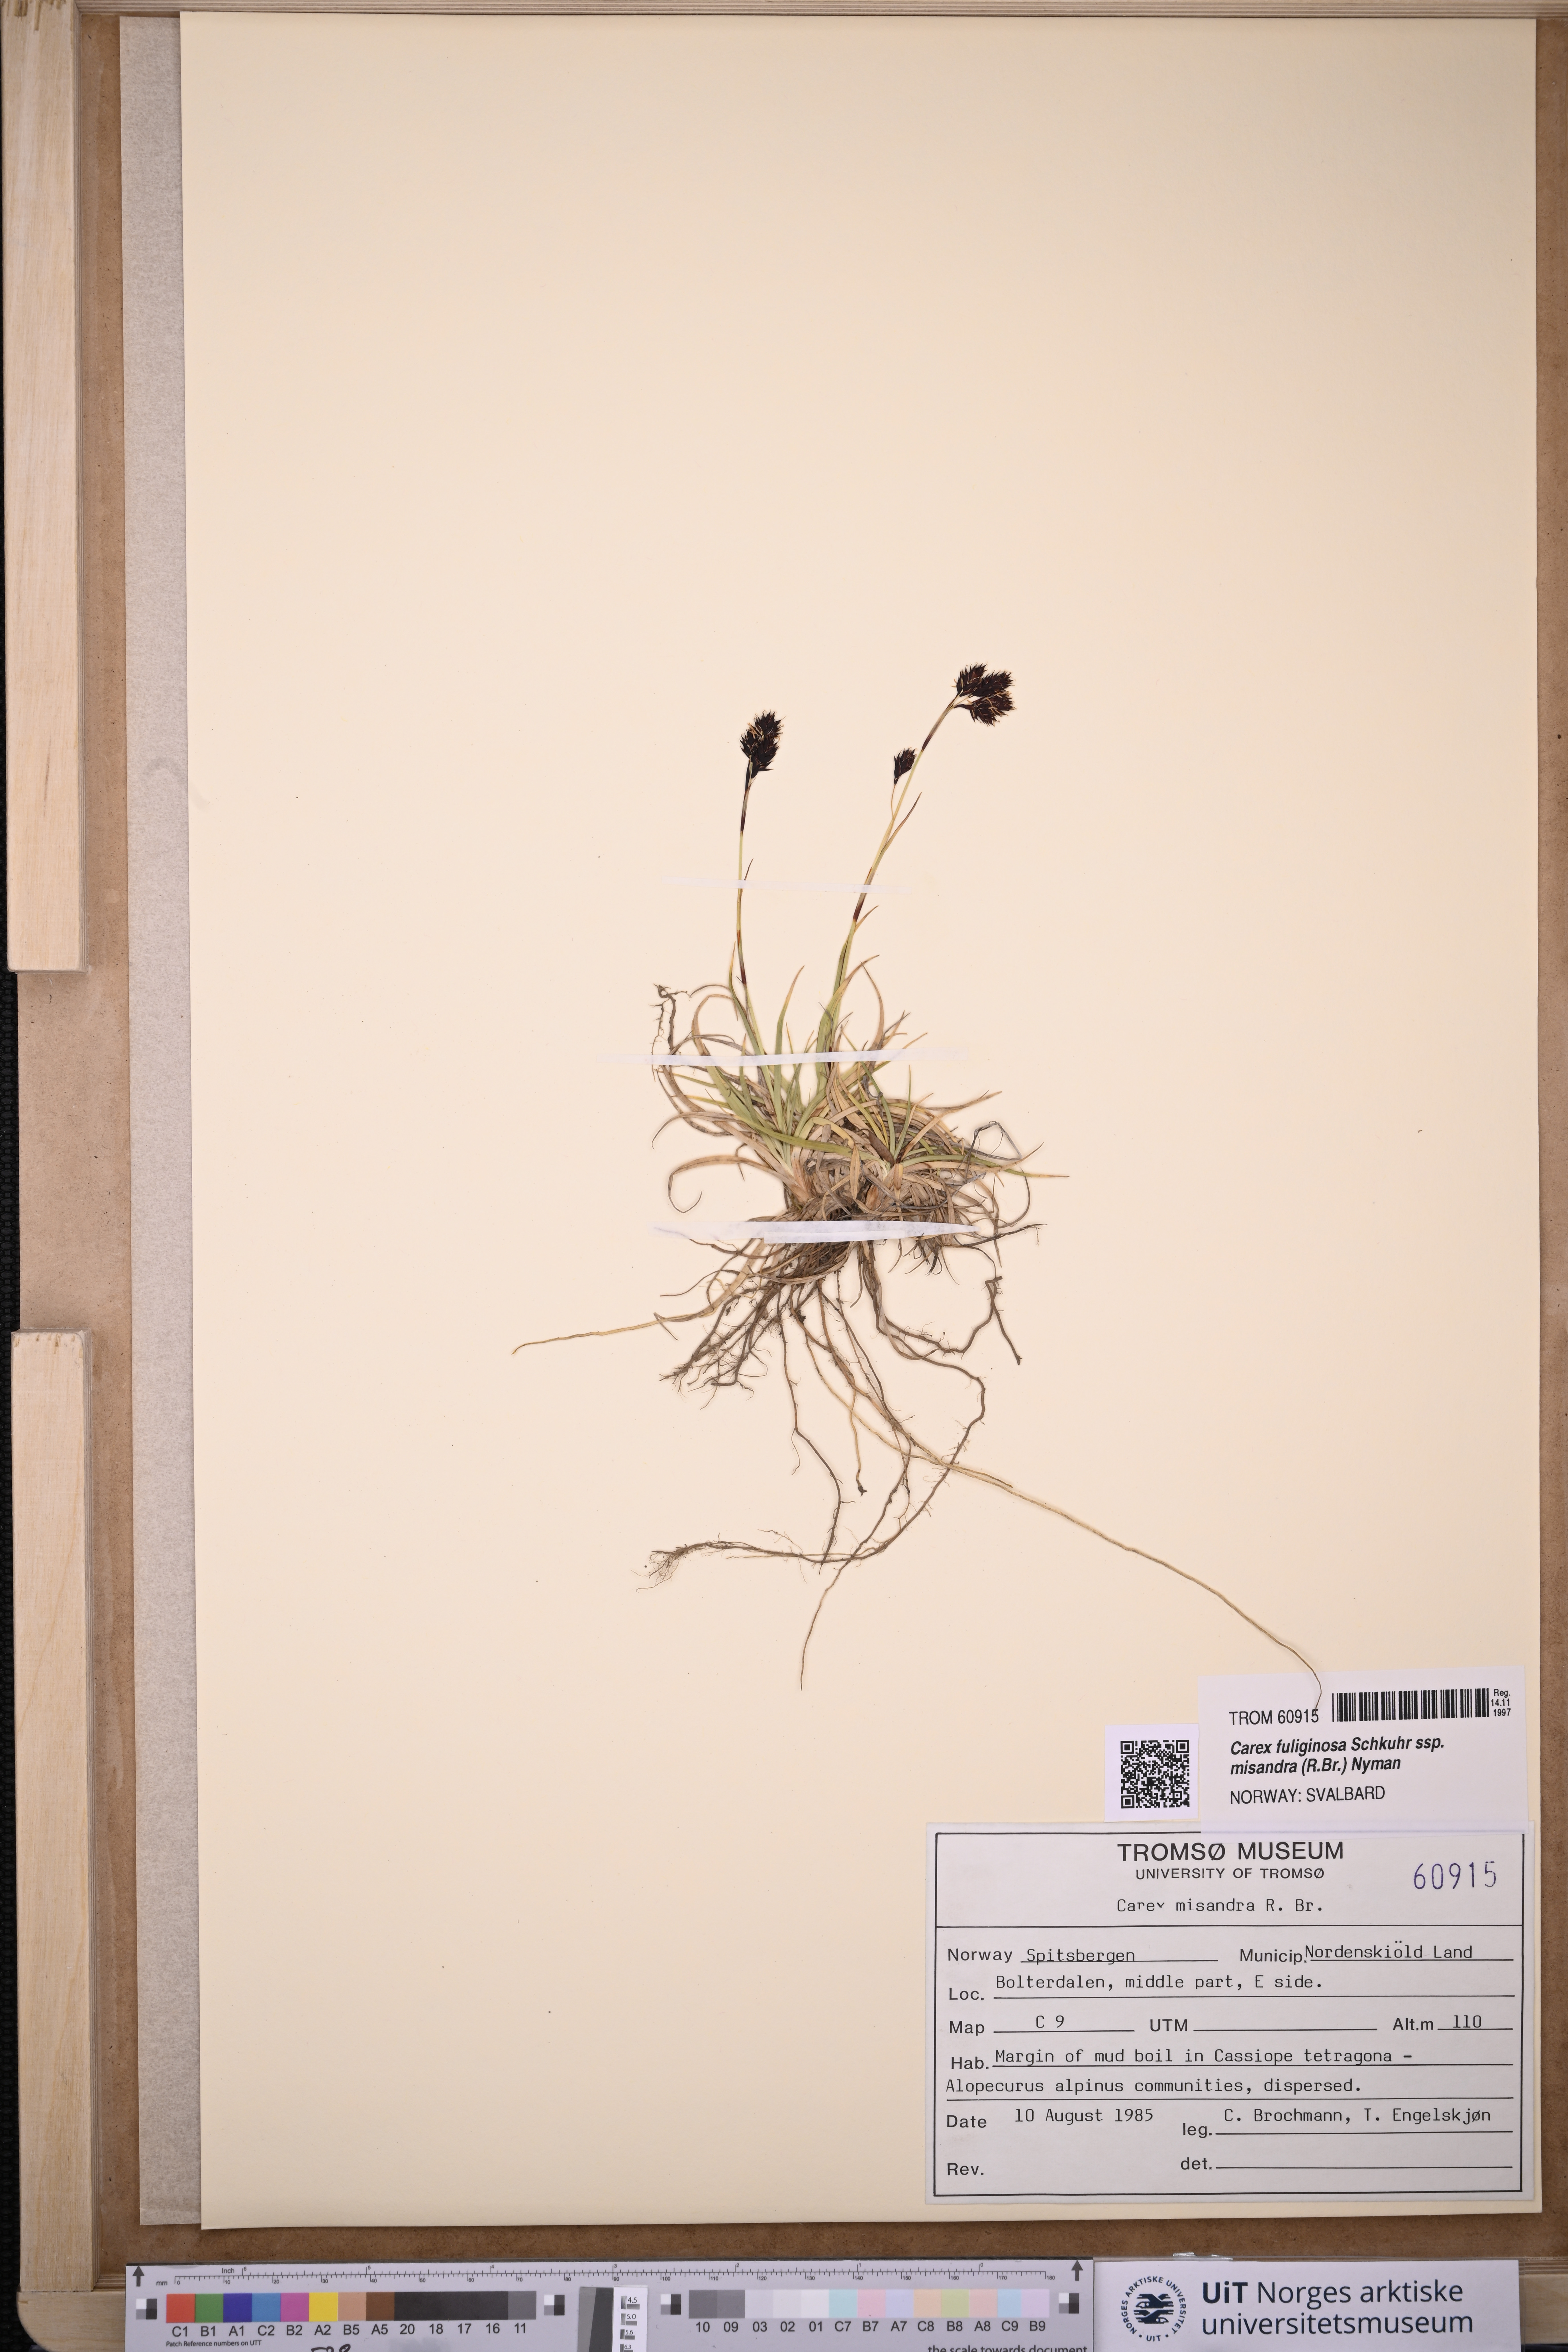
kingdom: Plantae
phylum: Tracheophyta
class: Liliopsida
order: Poales
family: Cyperaceae
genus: Carex
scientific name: Carex fuliginosa
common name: Few-flowered sedge
